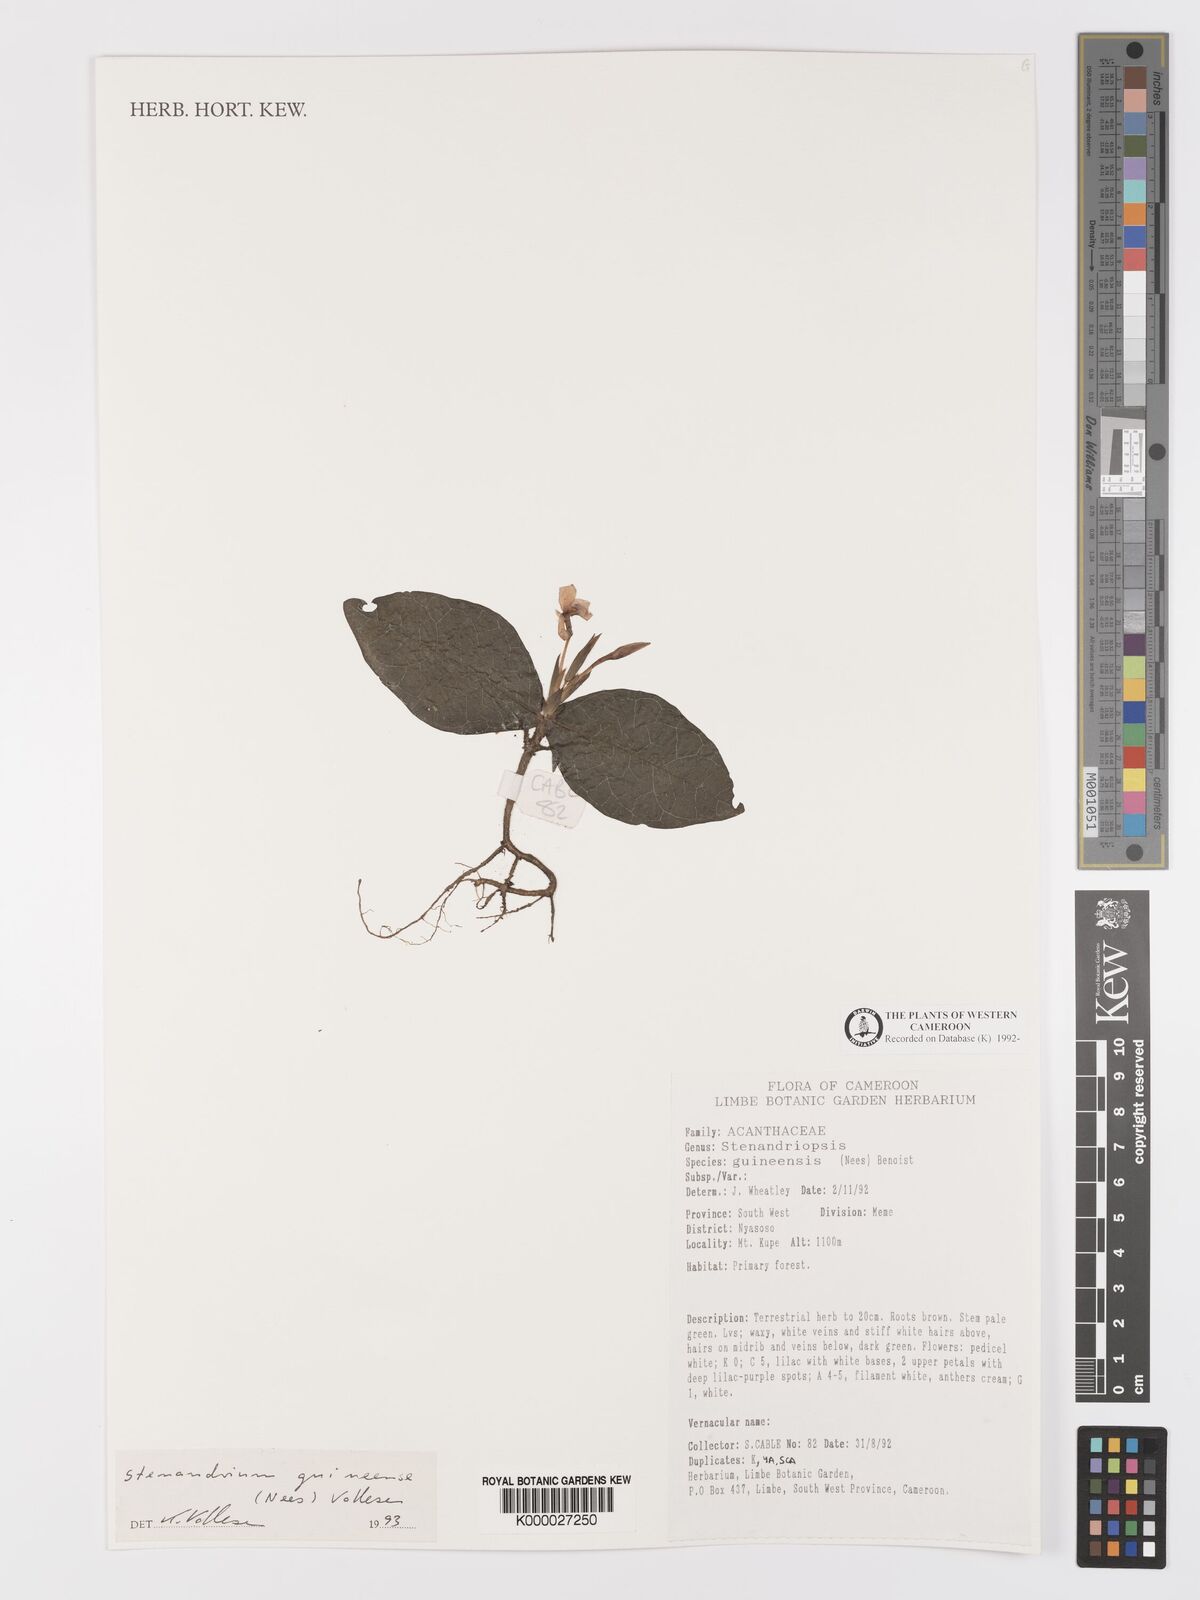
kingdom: Plantae
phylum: Tracheophyta
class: Magnoliopsida
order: Lamiales
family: Acanthaceae
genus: Stenandriopsis
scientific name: Stenandriopsis guineensis
